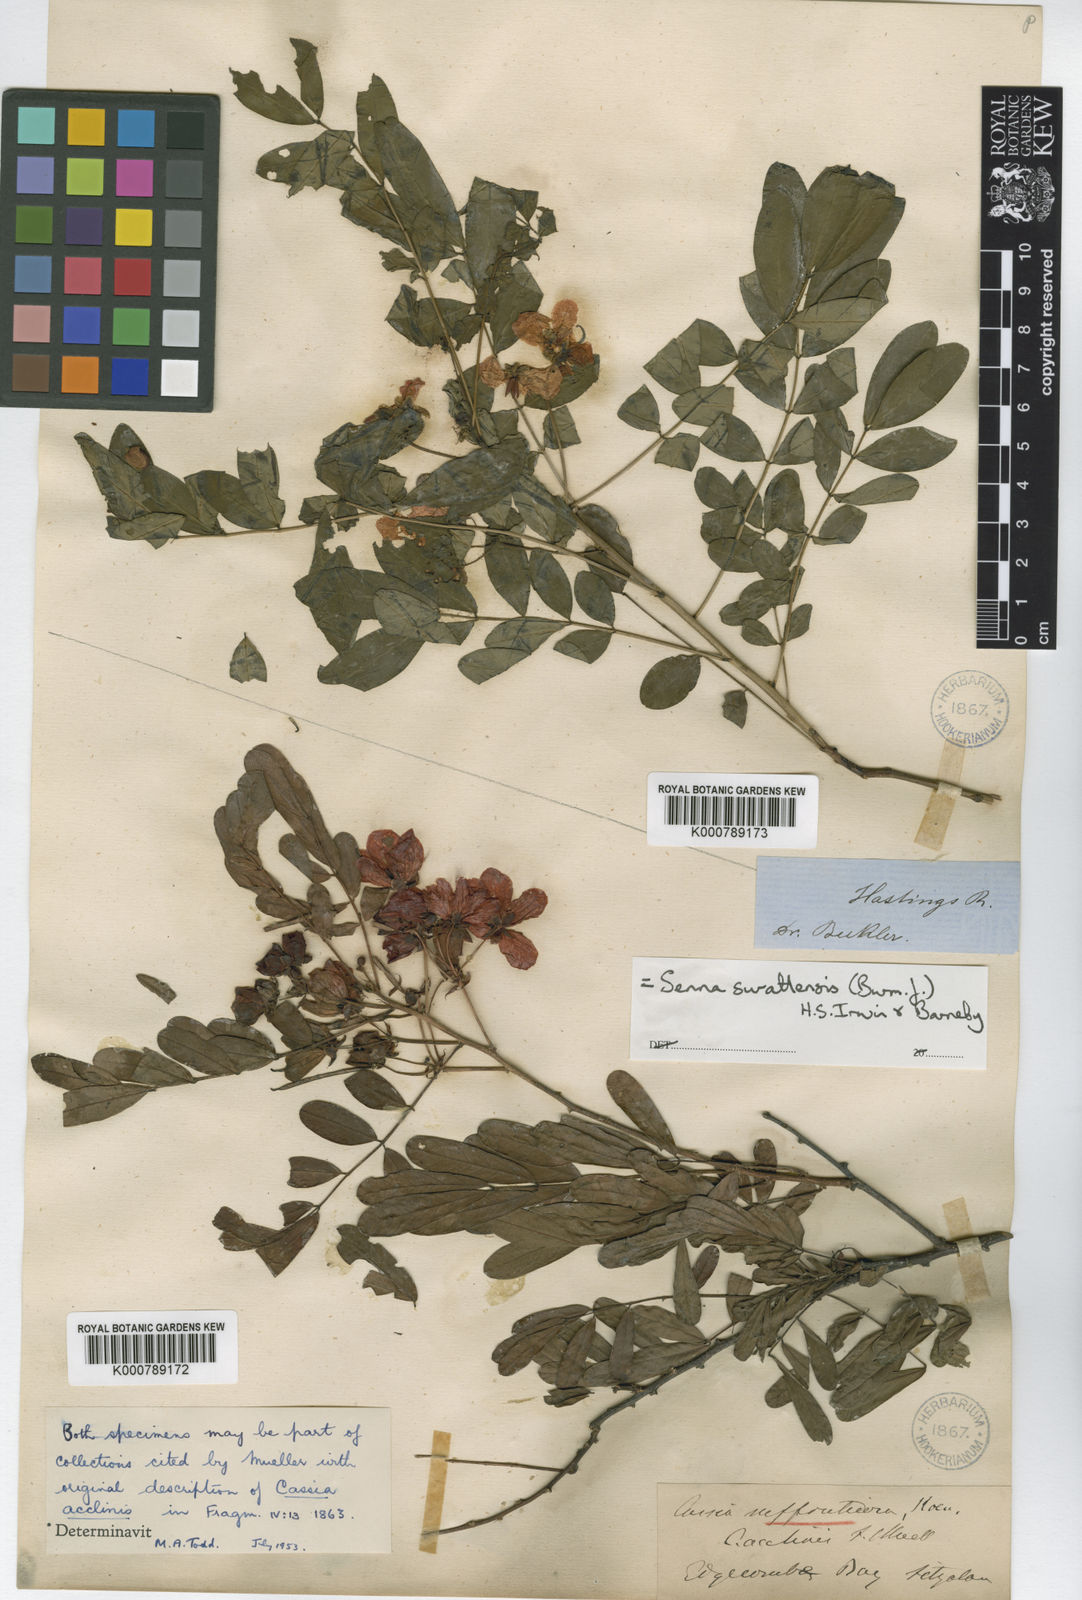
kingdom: Plantae
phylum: Tracheophyta
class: Magnoliopsida
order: Fabales
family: Fabaceae
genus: Senna
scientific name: Senna surattensis
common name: Glossy shower
